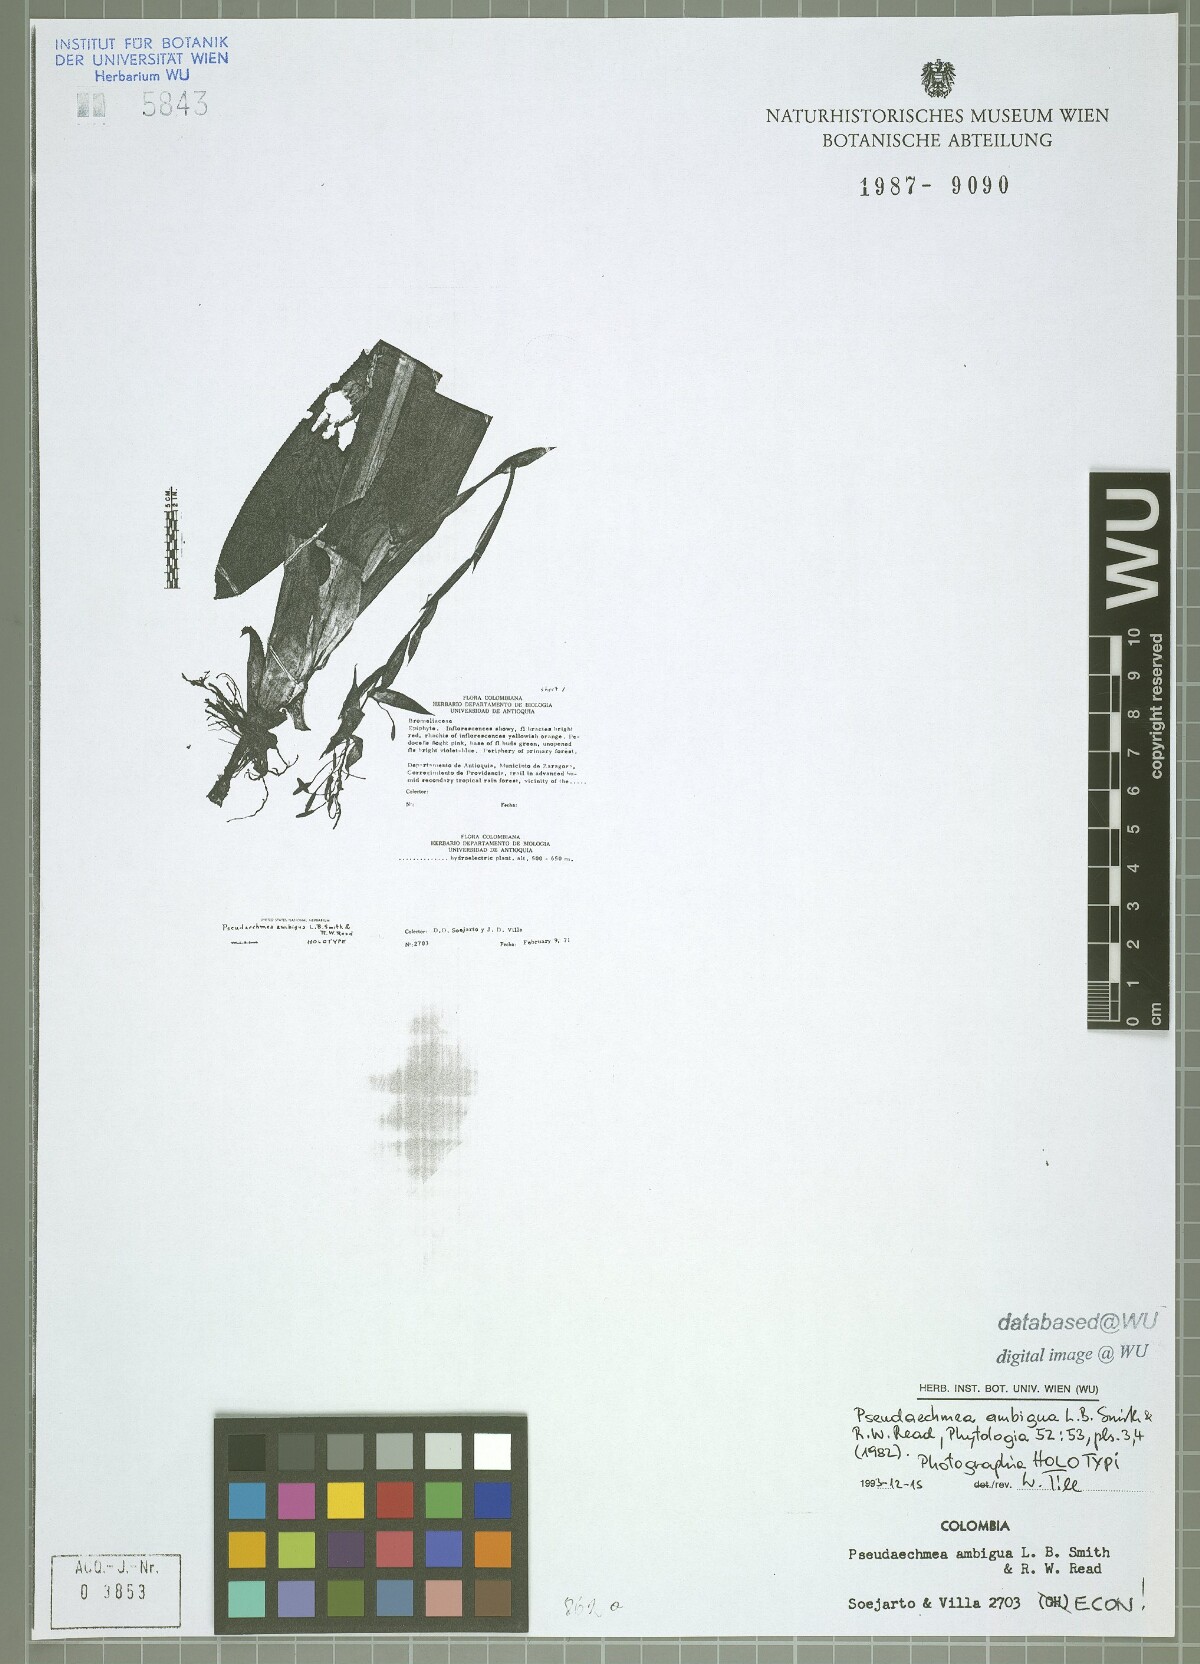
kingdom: Plantae
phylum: Tracheophyta
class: Liliopsida
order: Poales
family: Bromeliaceae
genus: Billbergia
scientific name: Billbergia ambigua
